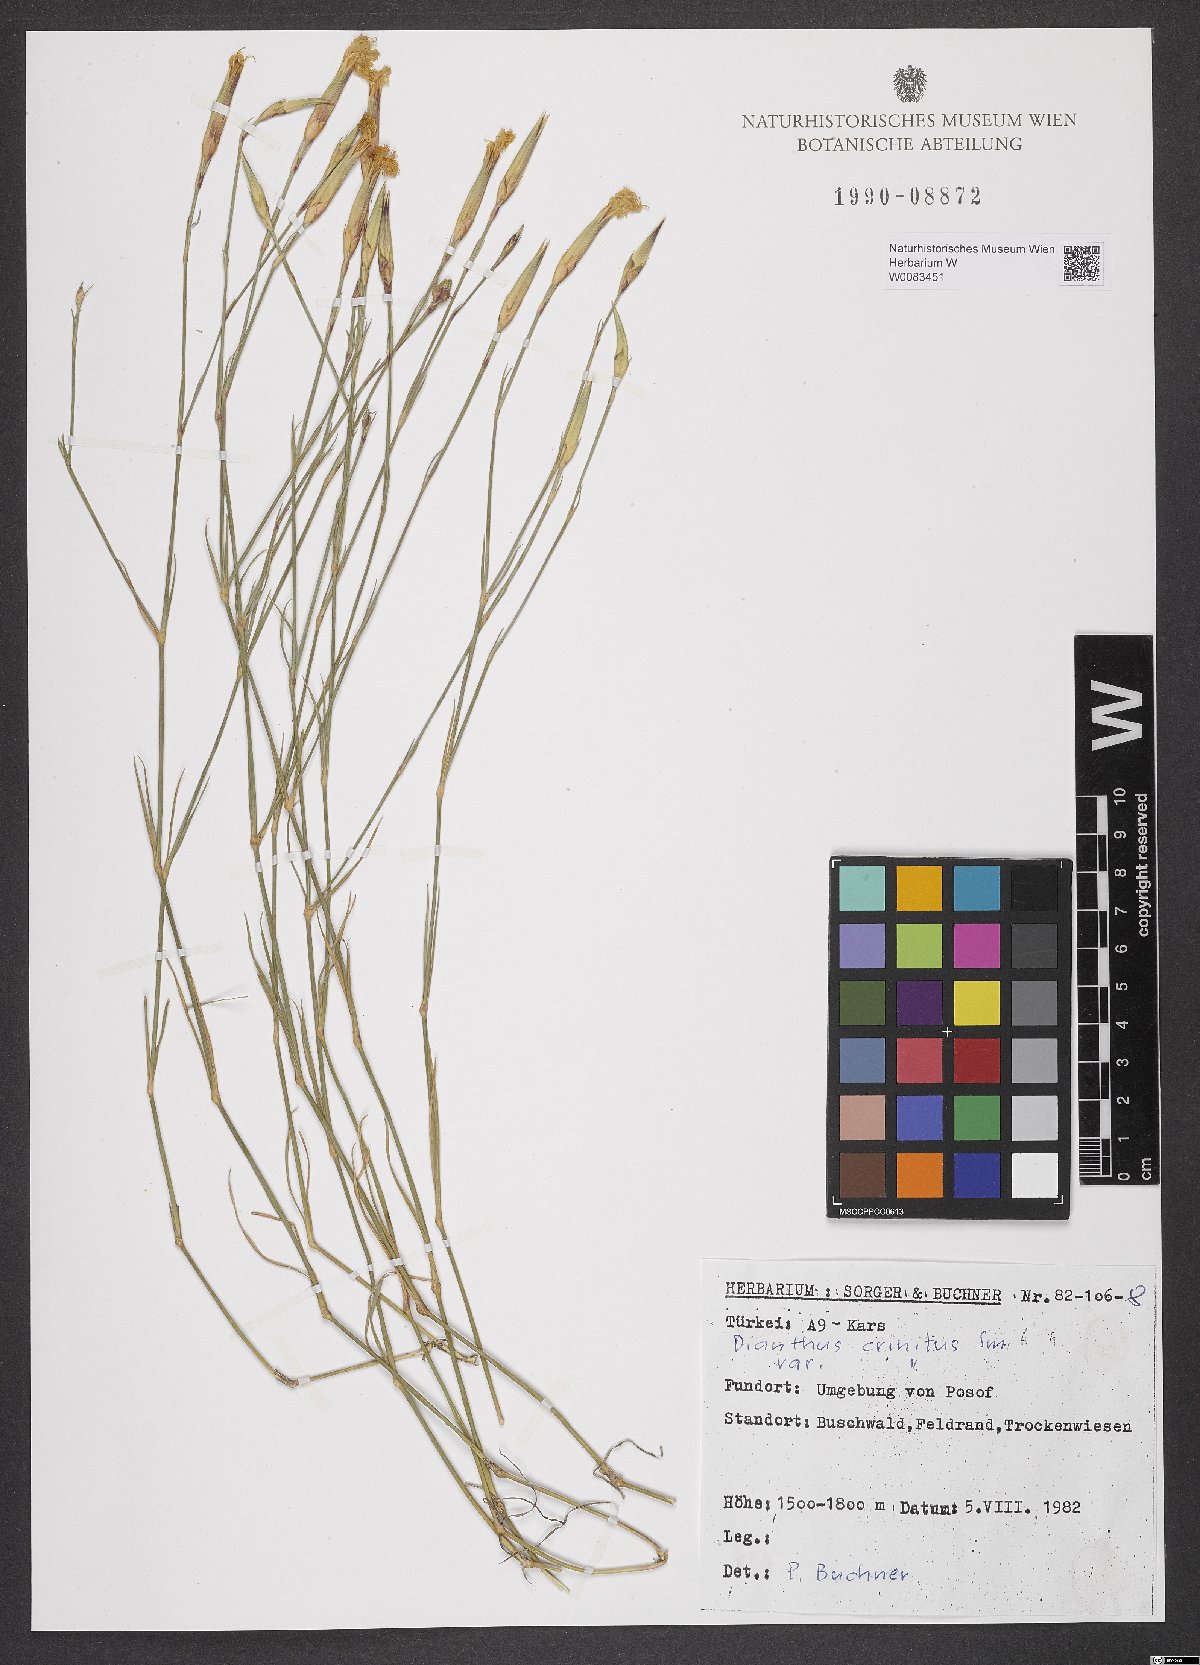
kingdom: Plantae
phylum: Tracheophyta
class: Magnoliopsida
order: Caryophyllales
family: Caryophyllaceae
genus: Dianthus
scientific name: Dianthus crinitus
